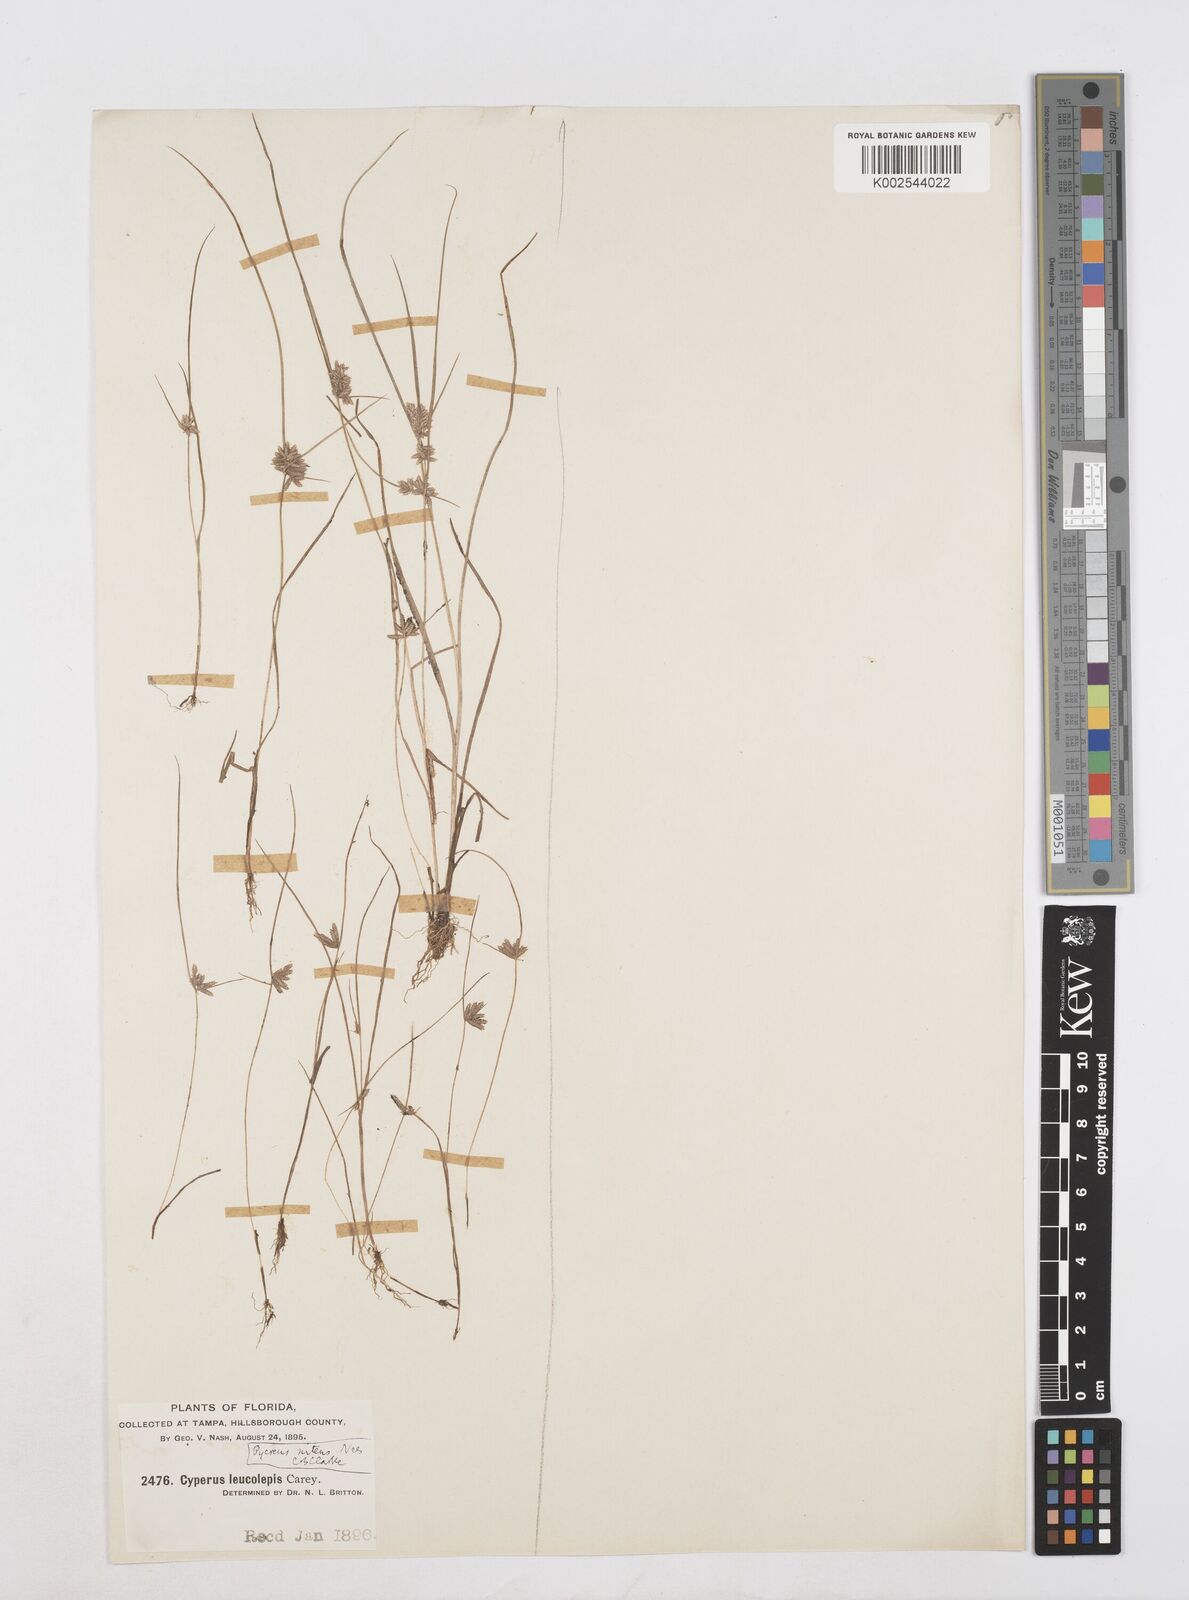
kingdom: Plantae
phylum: Tracheophyta
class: Liliopsida
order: Poales
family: Cyperaceae
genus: Cyperus
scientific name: Cyperus pumilus
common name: Low flatsedge
